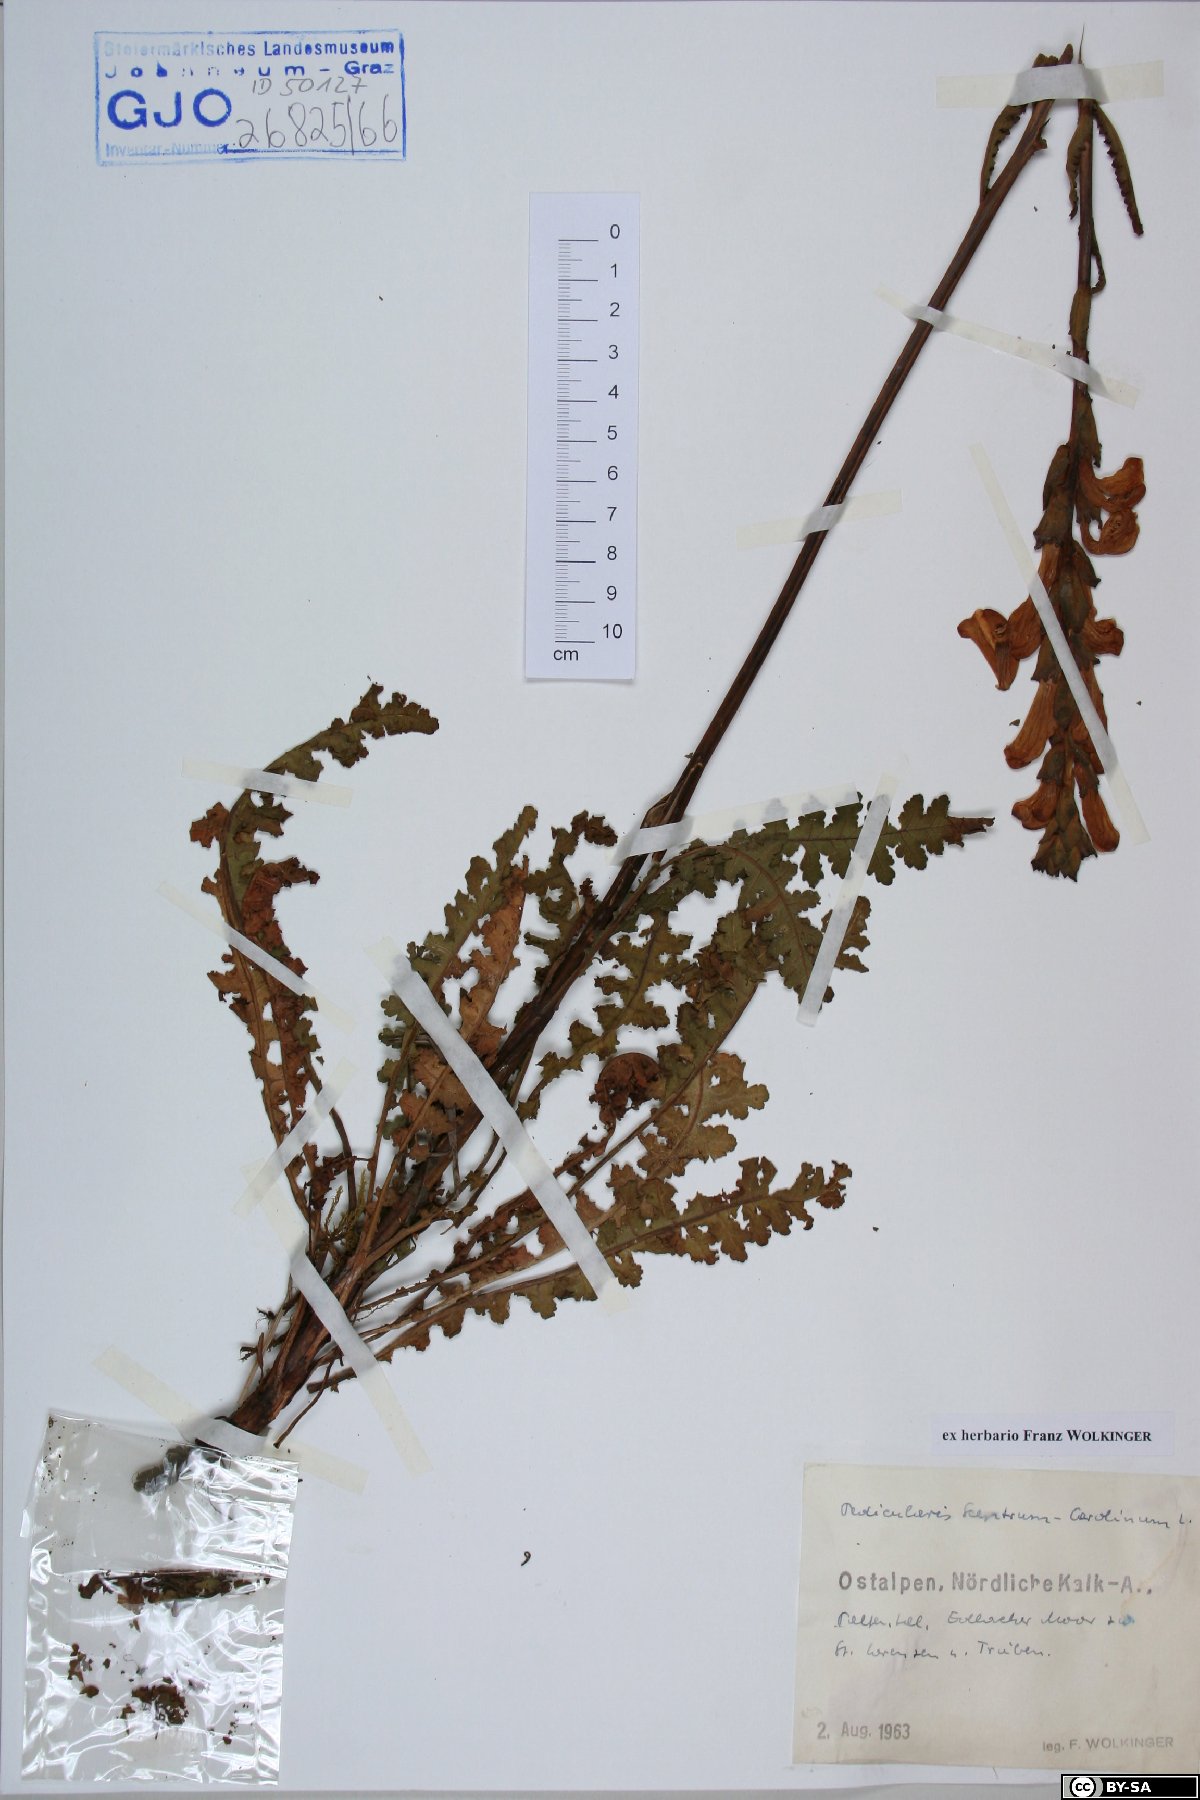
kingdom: Plantae
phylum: Tracheophyta
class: Magnoliopsida
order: Lamiales
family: Orobanchaceae
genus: Pedicularis
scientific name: Pedicularis sceptrum-carolinum
